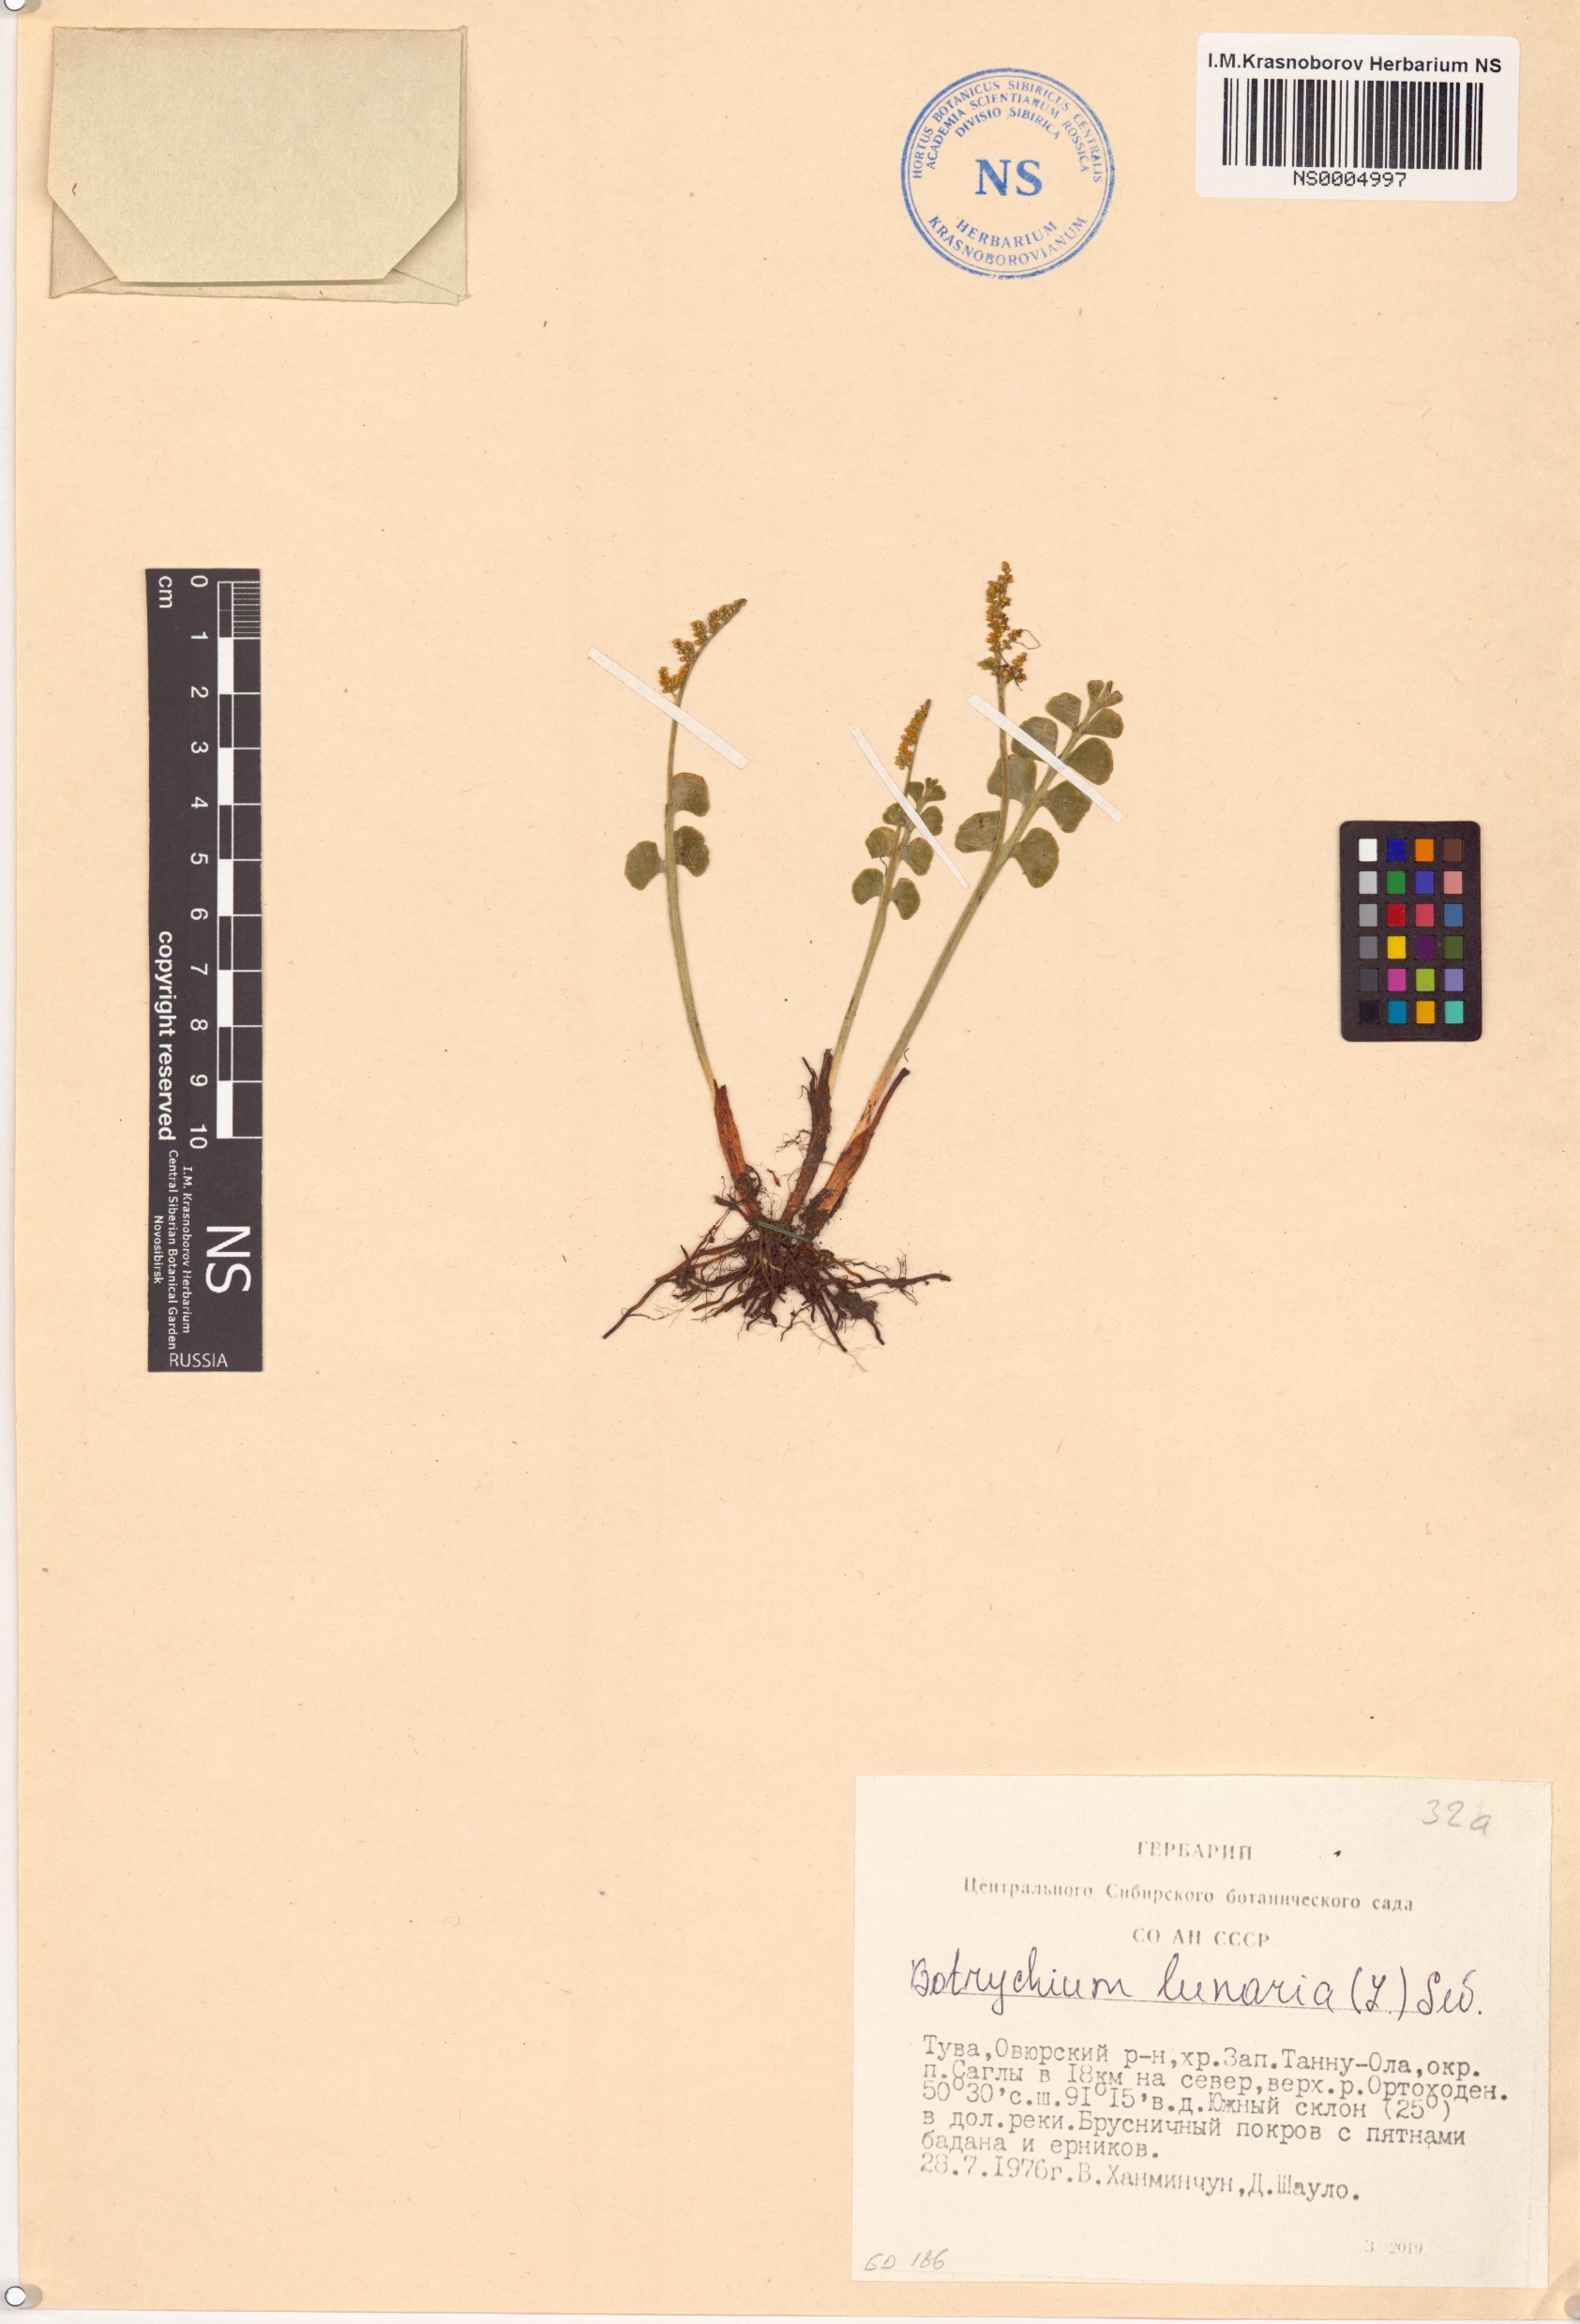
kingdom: Plantae
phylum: Tracheophyta
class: Polypodiopsida
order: Ophioglossales
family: Ophioglossaceae
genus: Botrychium
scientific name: Botrychium lunaria
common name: Moonwort
